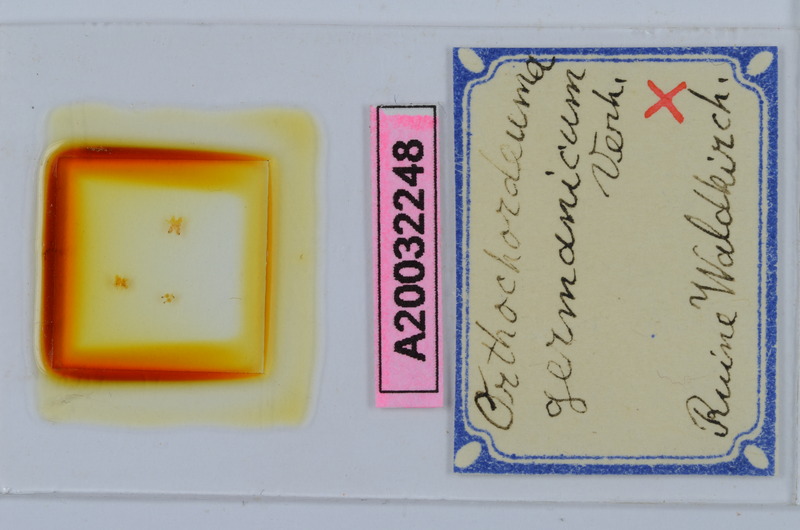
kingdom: Animalia
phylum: Arthropoda
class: Diplopoda
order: Chordeumatida
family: Chordeumatidae
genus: Mycogona
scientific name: Mycogona germanica
